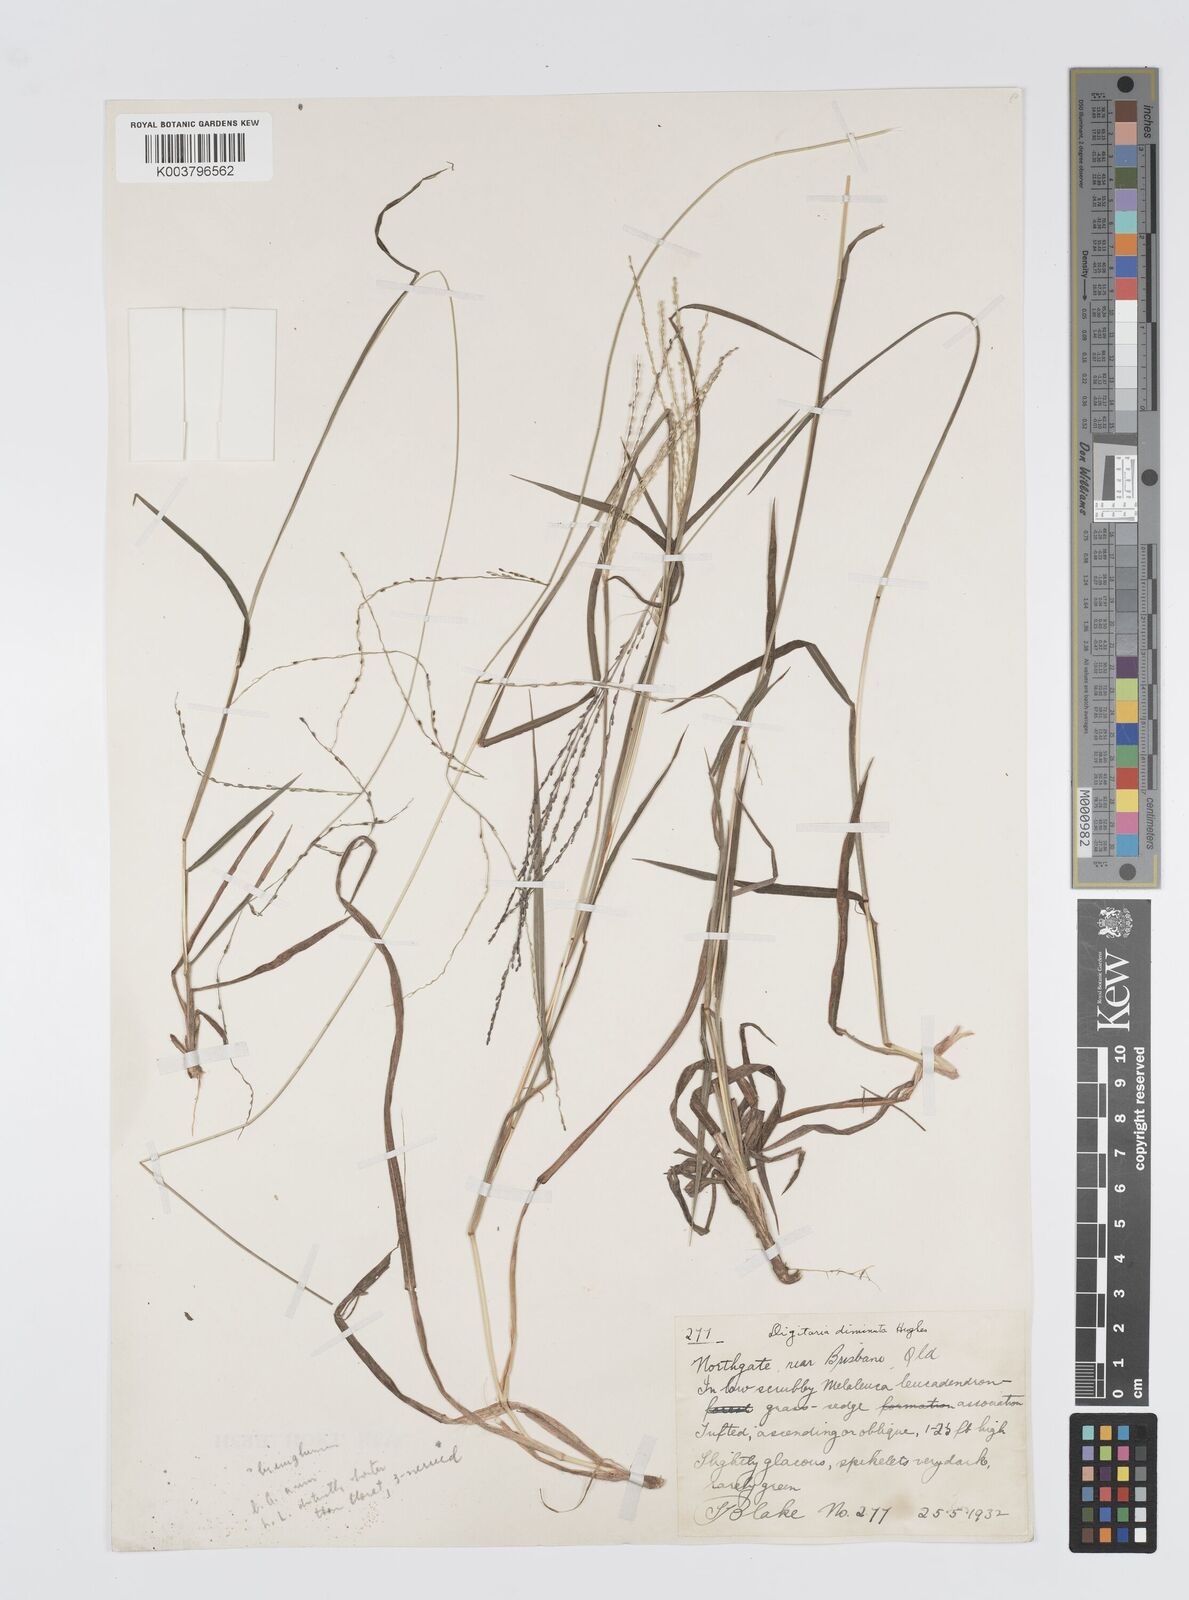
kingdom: Plantae
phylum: Tracheophyta
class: Liliopsida
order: Poales
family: Poaceae
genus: Digitaria
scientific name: Digitaria breviglumis
